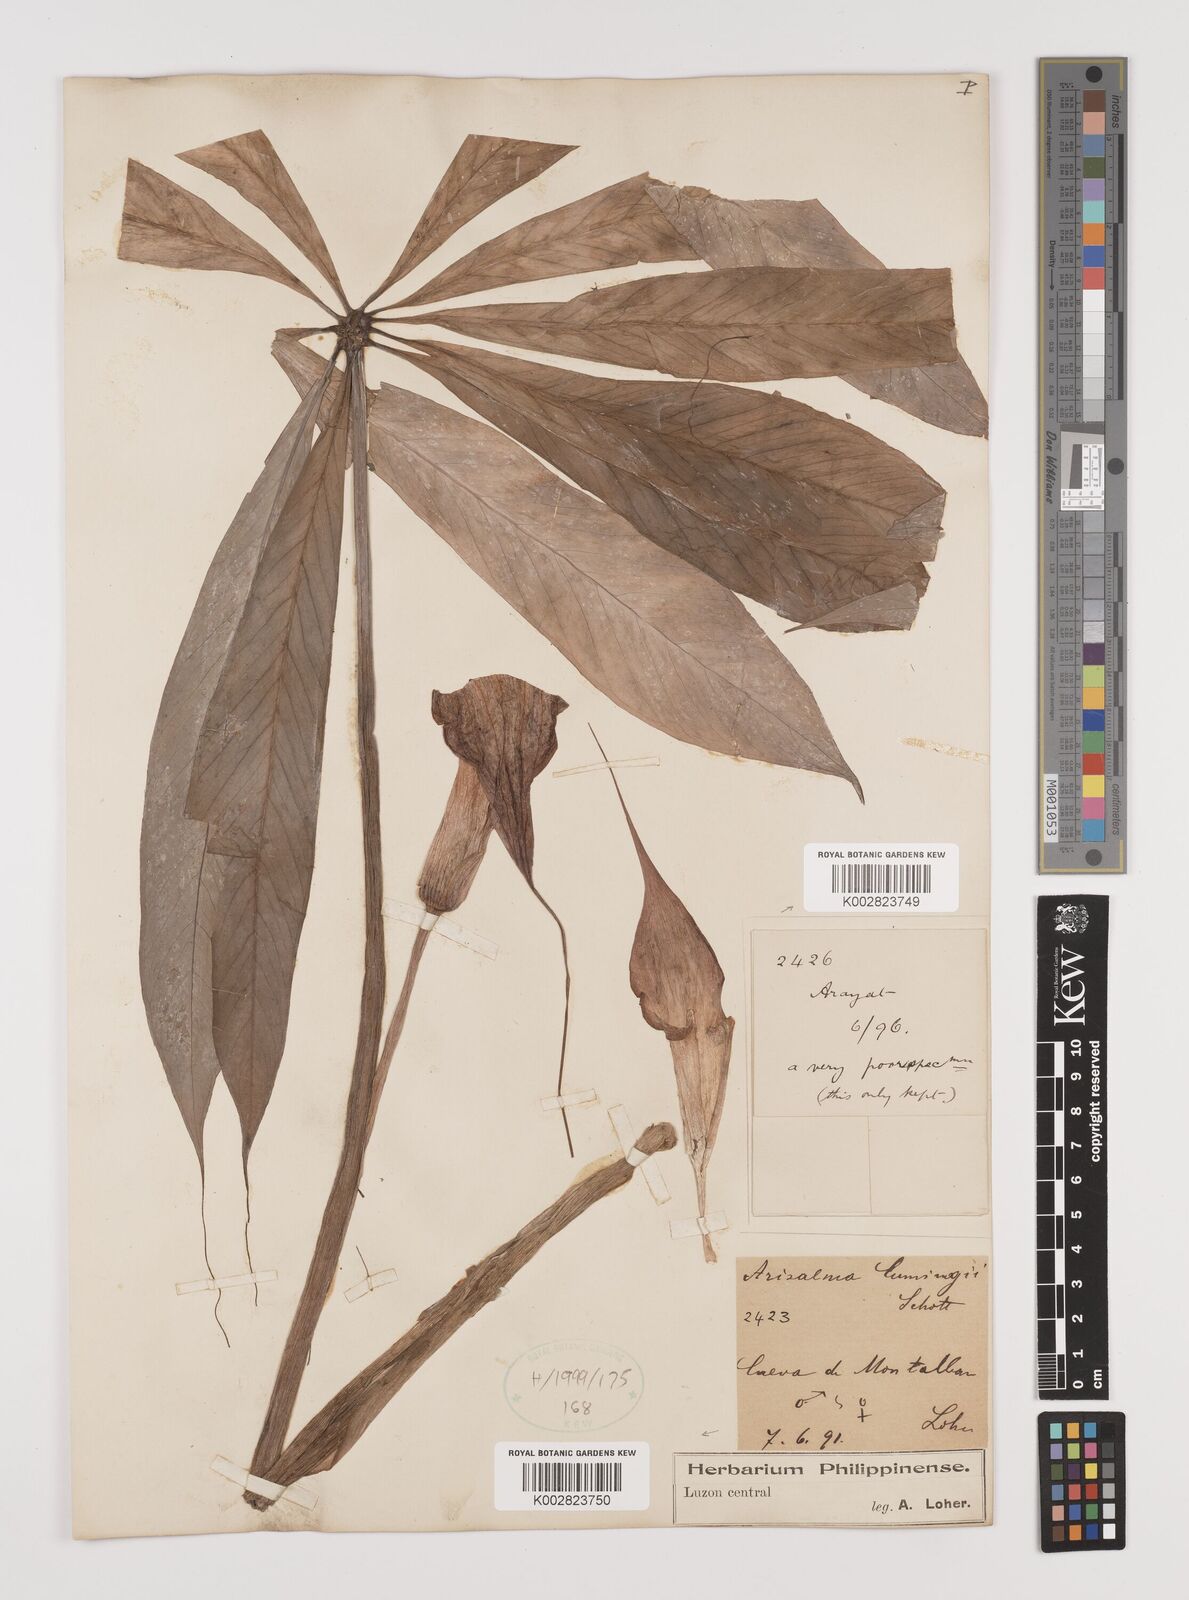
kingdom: Plantae
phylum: Tracheophyta
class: Liliopsida
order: Alismatales
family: Araceae
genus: Arisaema
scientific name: Arisaema polyphyllum
